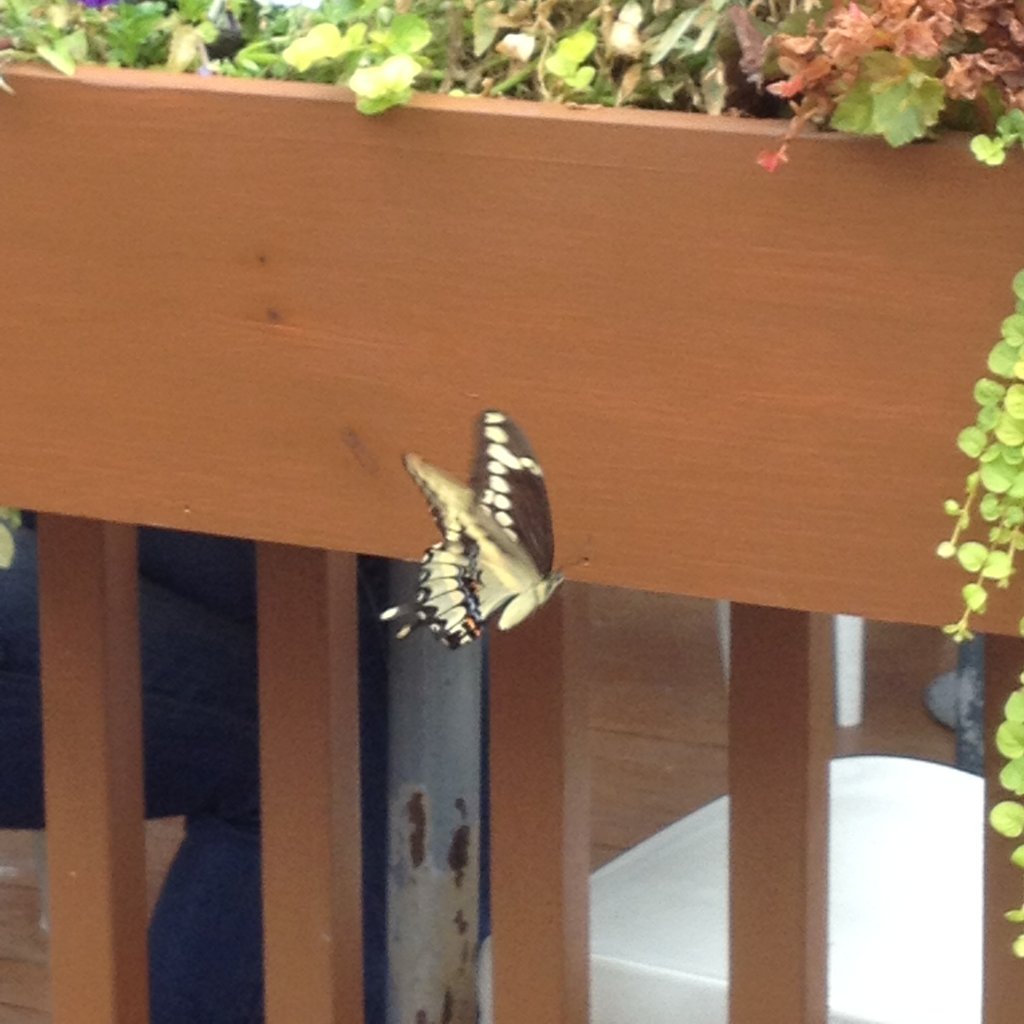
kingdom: Animalia
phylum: Arthropoda
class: Insecta
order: Lepidoptera
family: Papilionidae
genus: Papilio
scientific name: Papilio cresphontes
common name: Eastern Giant Swallowtail
